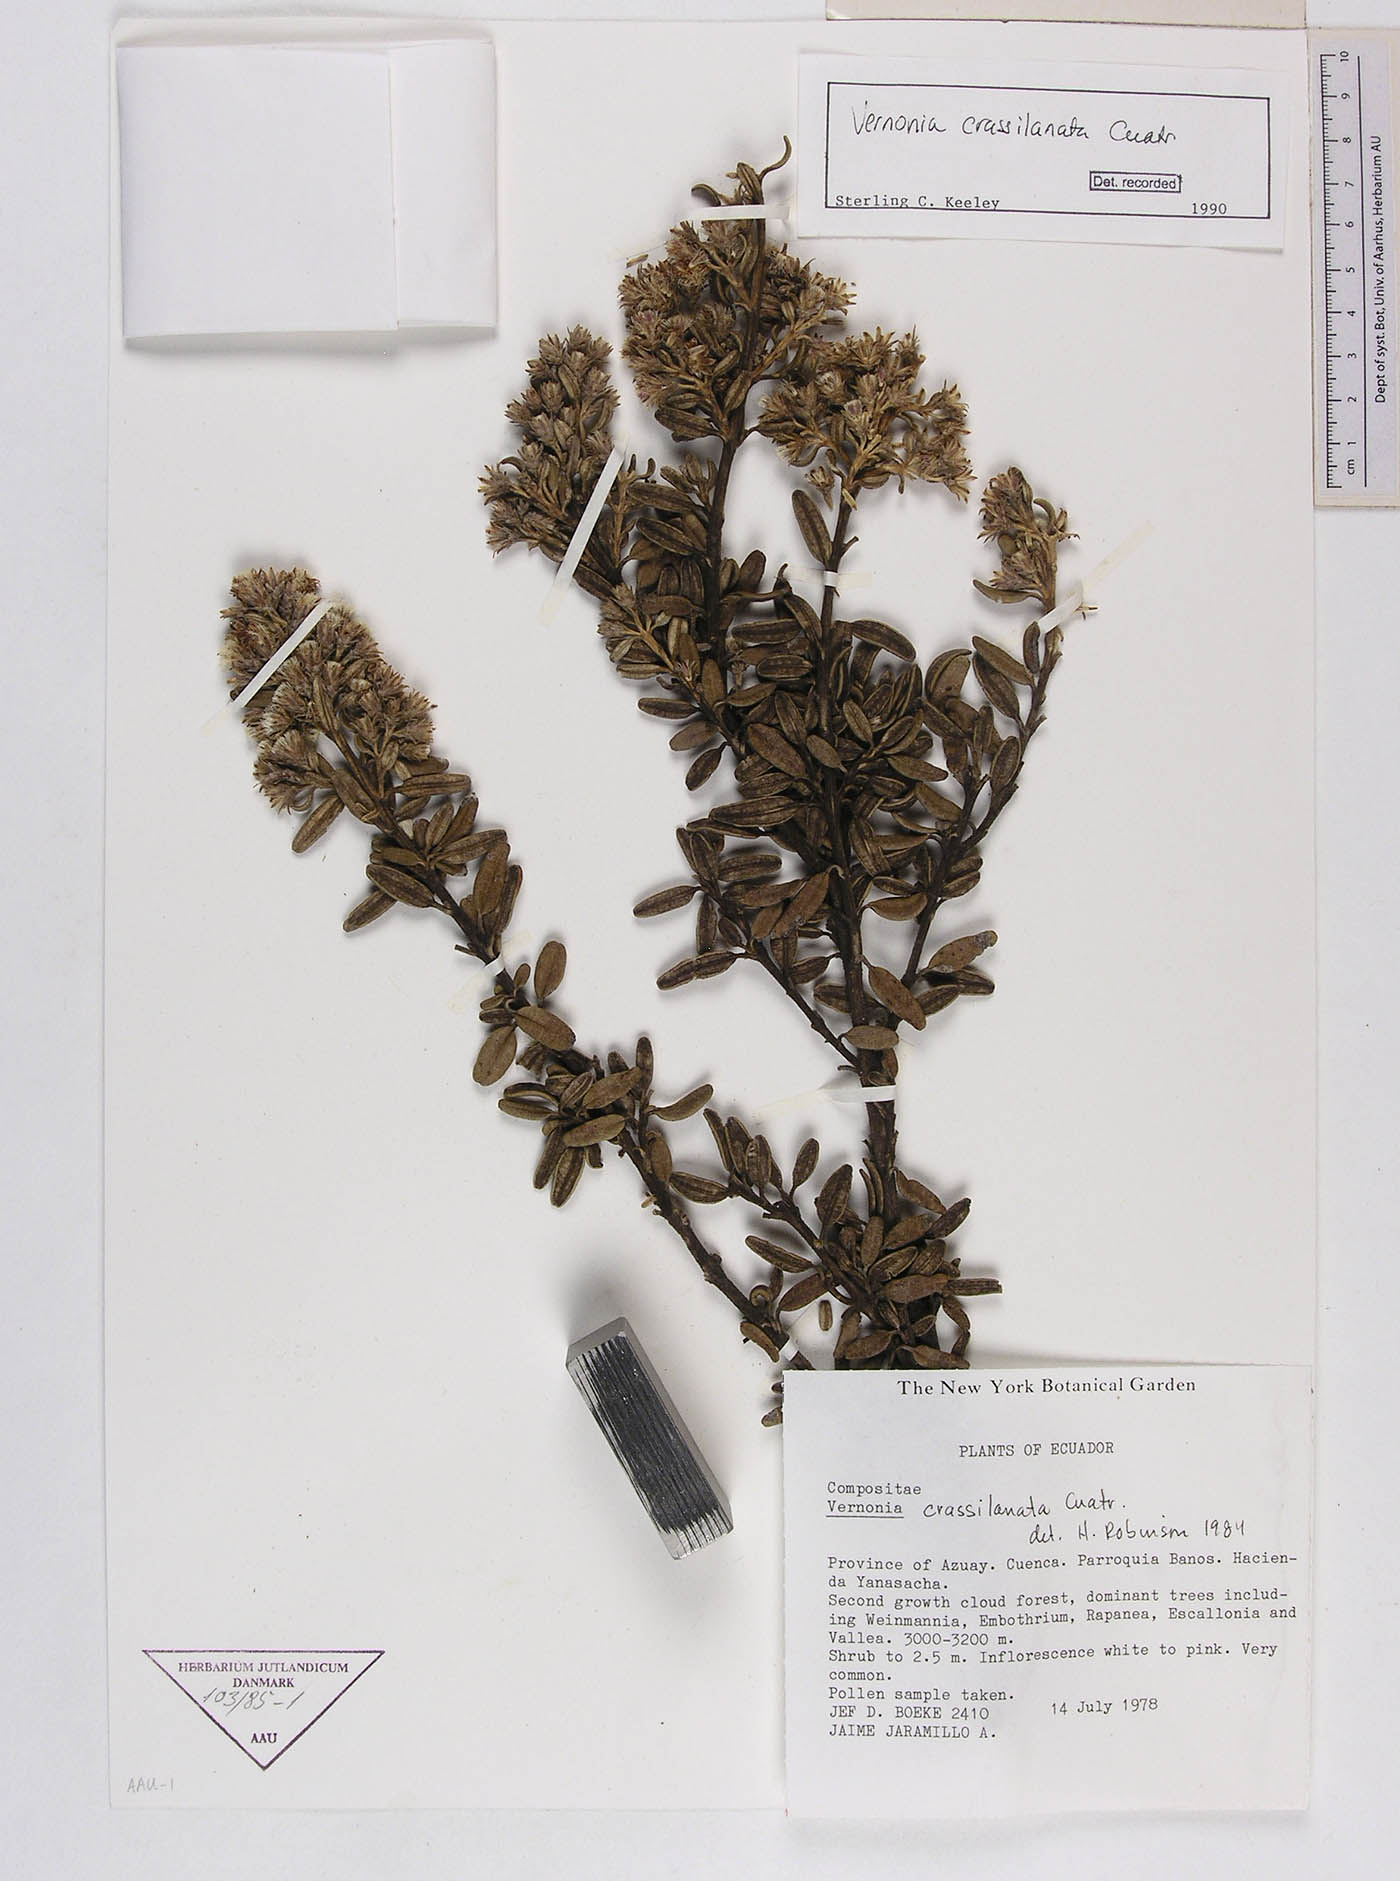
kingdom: Plantae
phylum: Tracheophyta
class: Magnoliopsida
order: Asterales
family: Asteraceae
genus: Joseanthus
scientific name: Joseanthus cuatrecasasii
